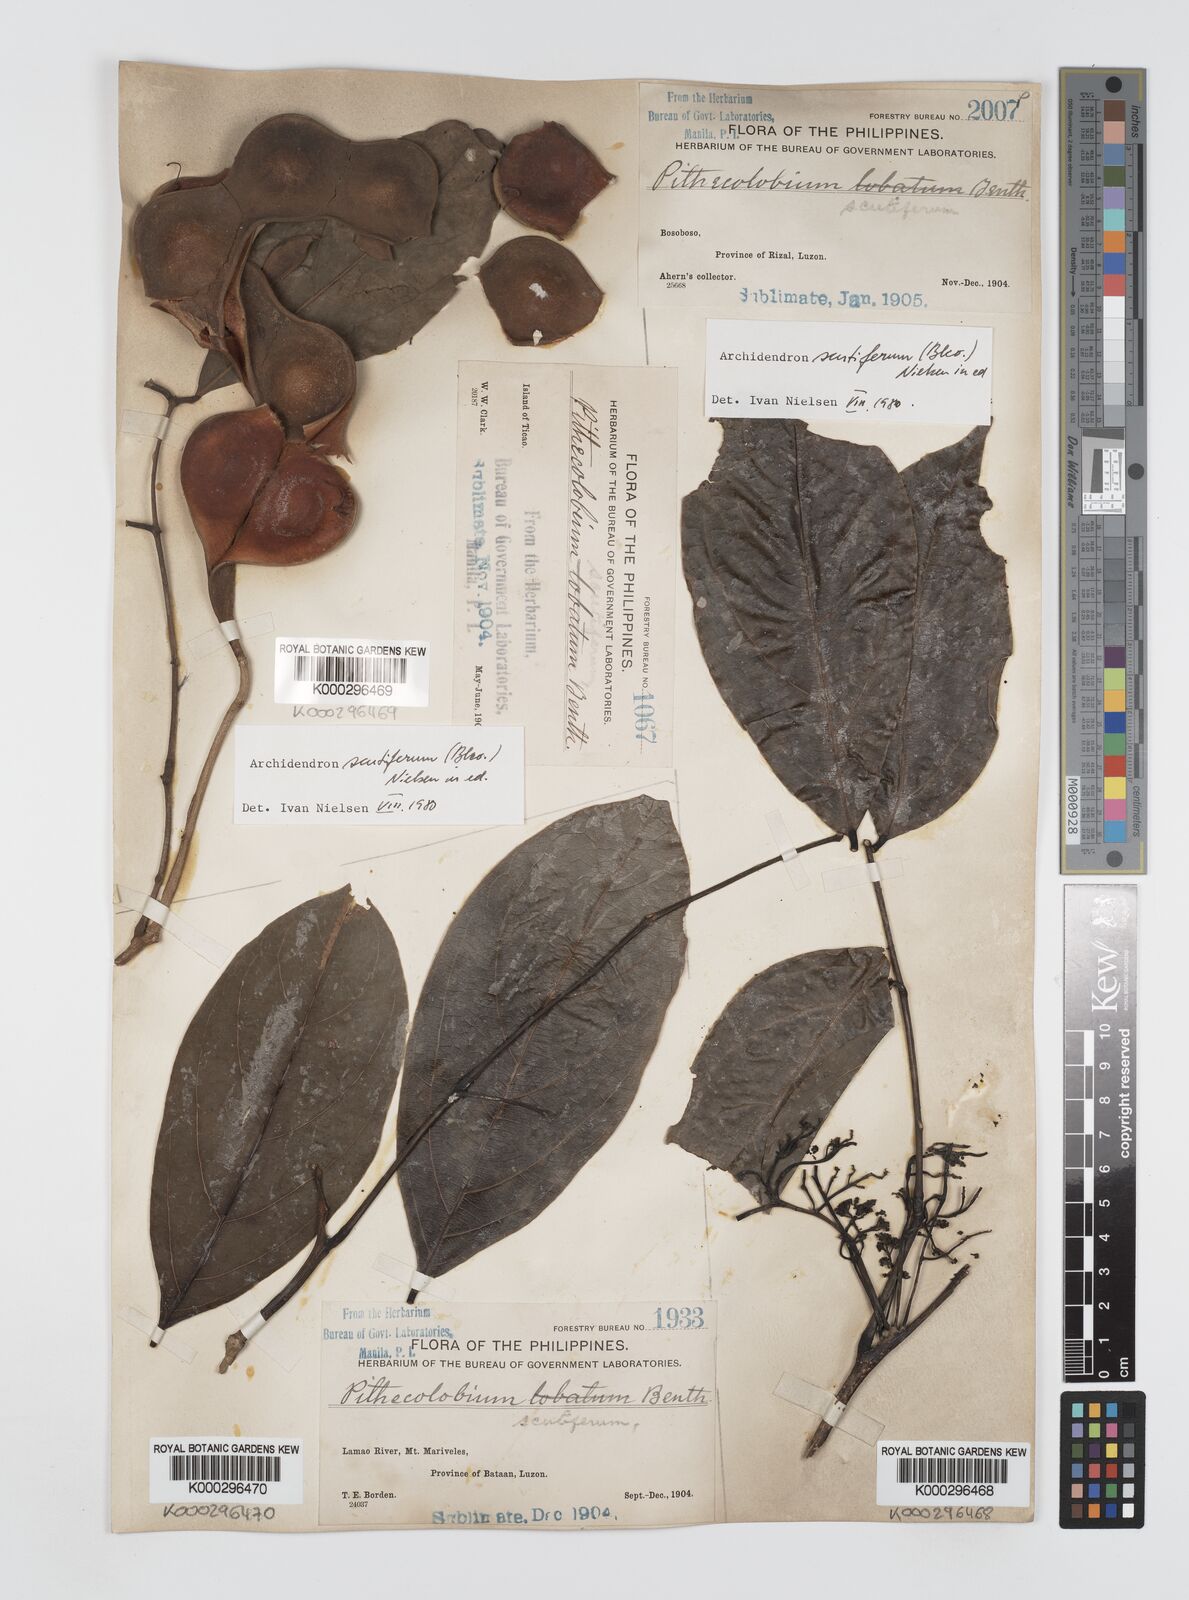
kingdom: Plantae
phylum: Tracheophyta
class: Magnoliopsida
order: Fabales
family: Fabaceae
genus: Archidendron
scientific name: Archidendron scutiferum
